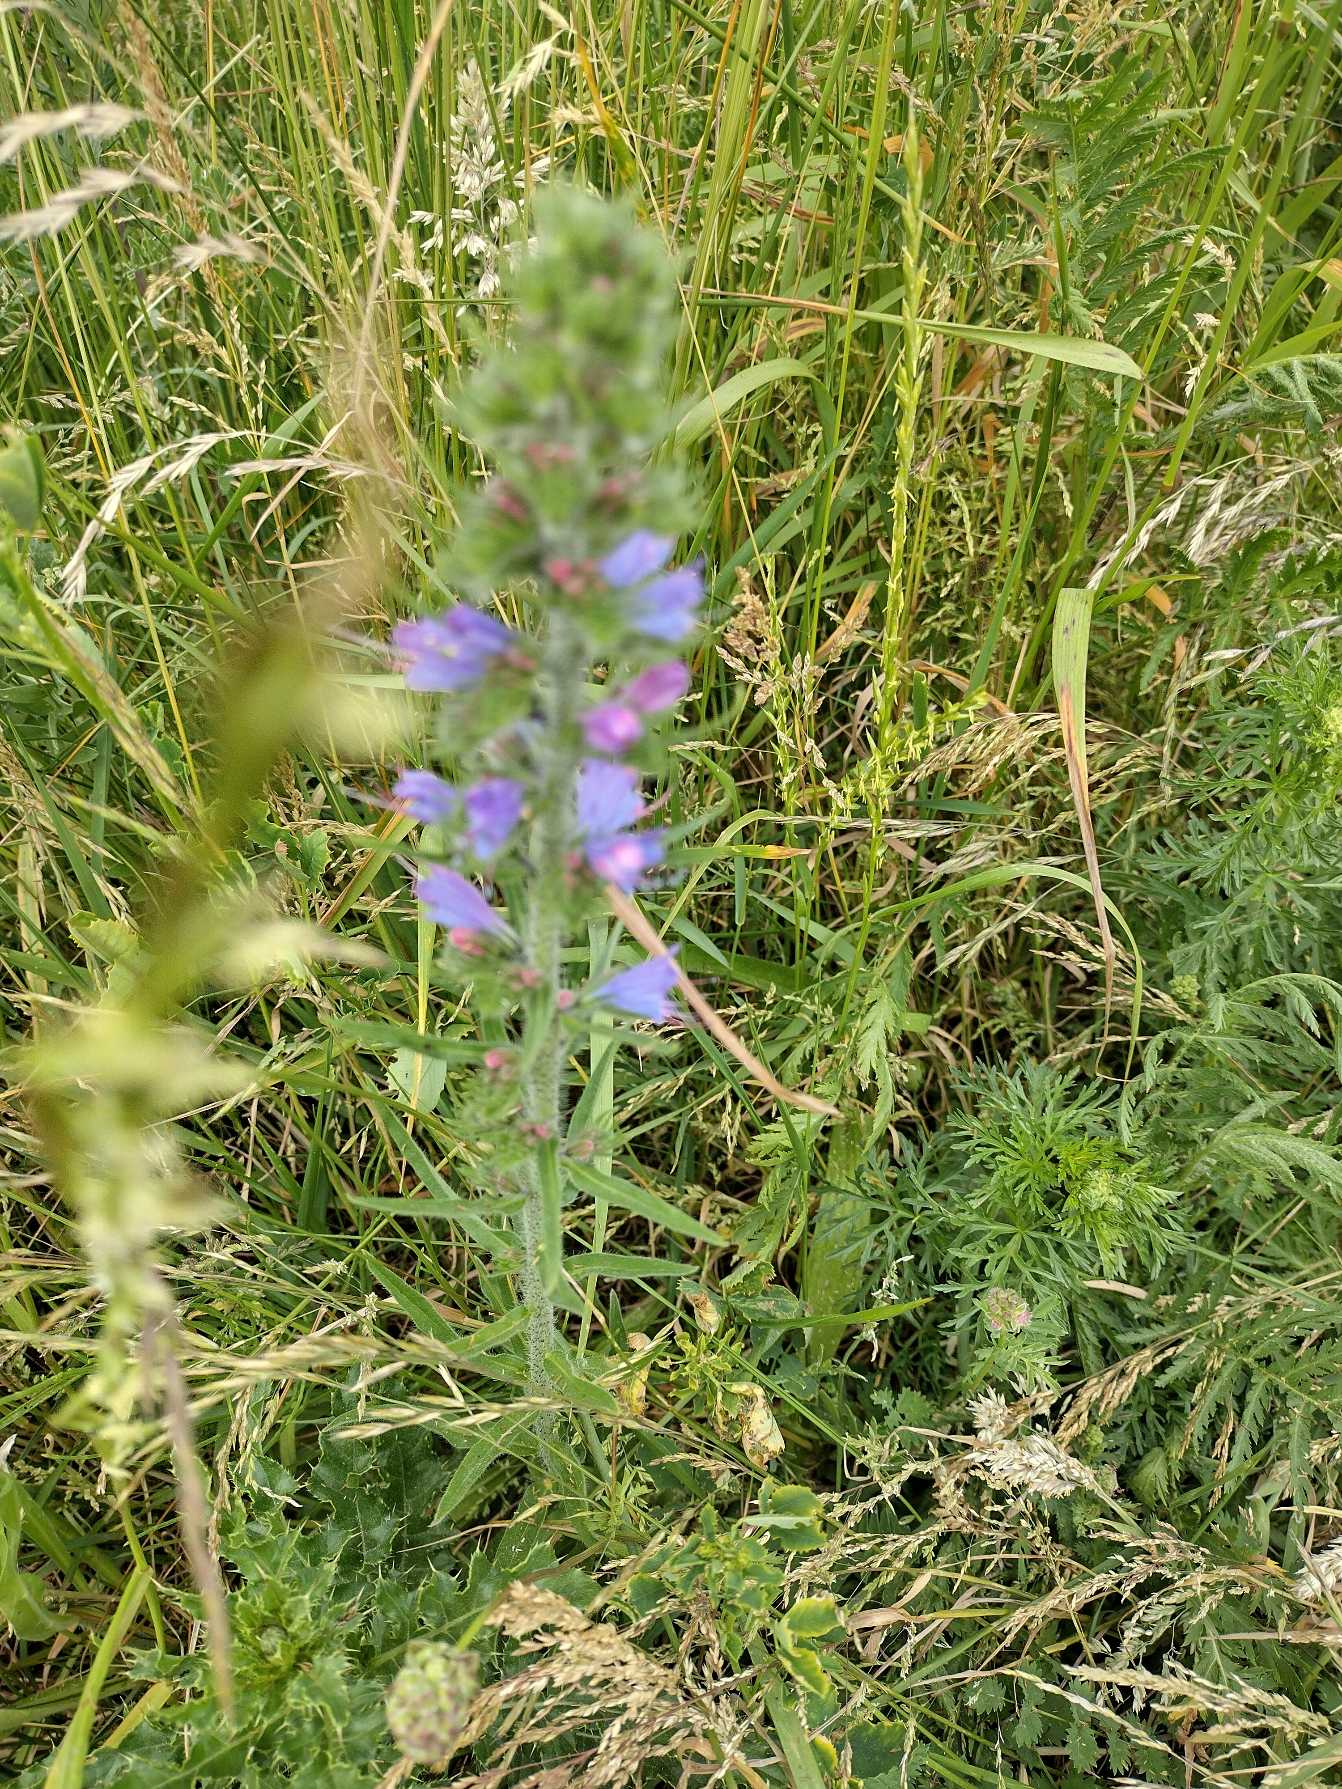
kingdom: Plantae
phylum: Tracheophyta
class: Magnoliopsida
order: Boraginales
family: Boraginaceae
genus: Echium
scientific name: Echium vulgare
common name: Slangehoved
